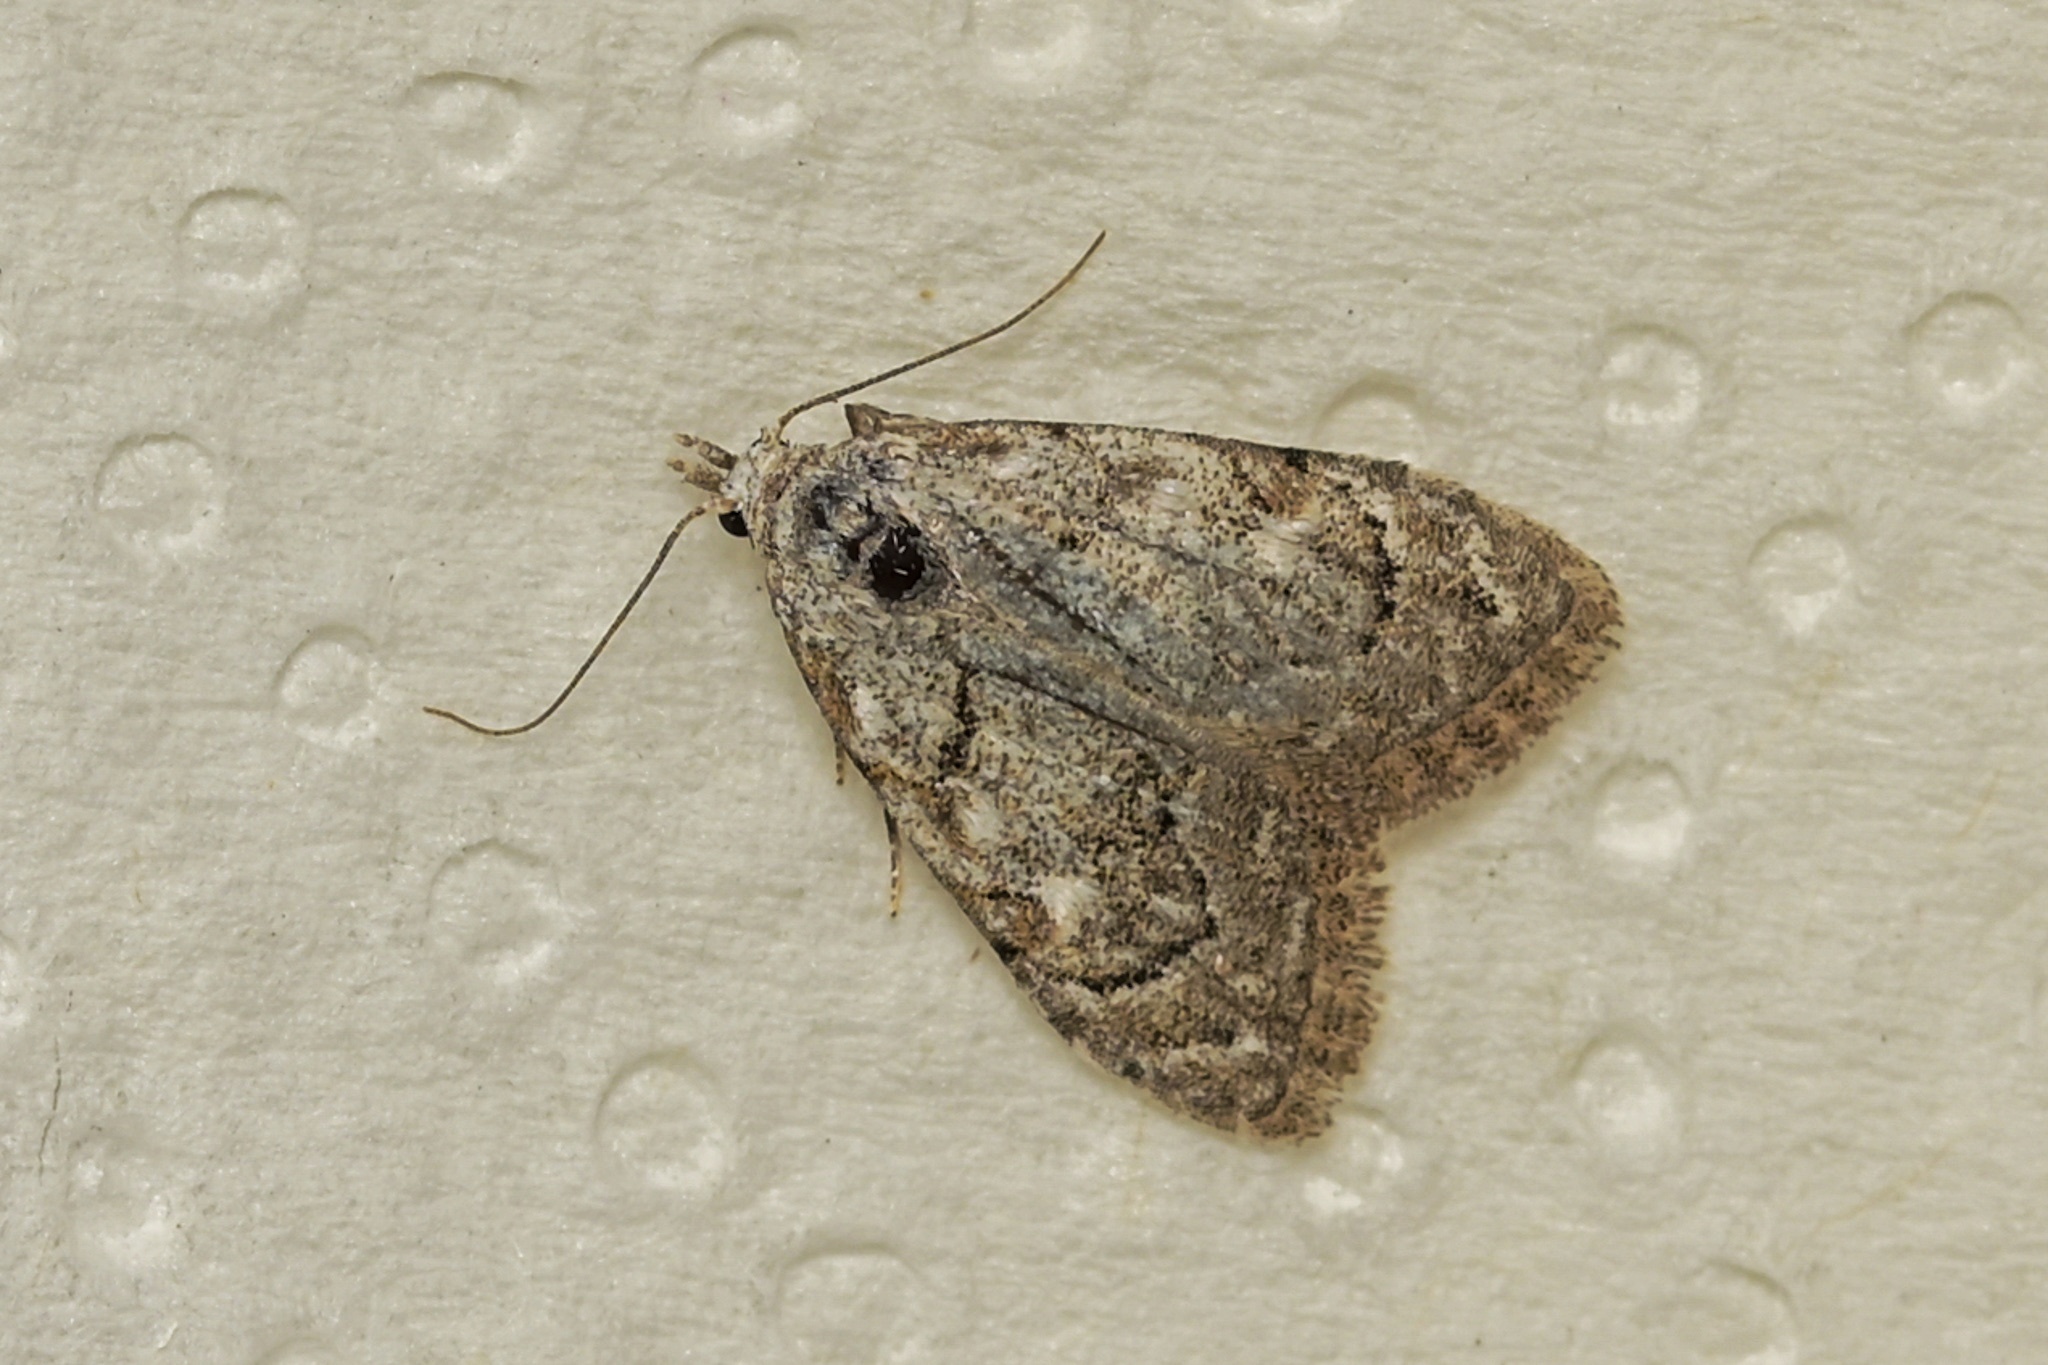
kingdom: Animalia
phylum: Arthropoda
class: Insecta
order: Lepidoptera
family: Nolidae
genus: Nola
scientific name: Nola confusalis
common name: Least black arches
